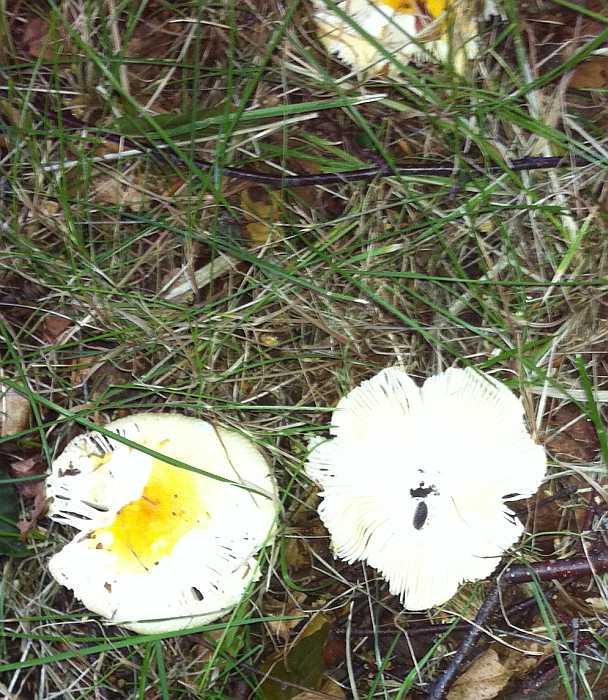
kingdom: Fungi
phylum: Basidiomycota
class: Agaricomycetes
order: Russulales
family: Russulaceae
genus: Russula
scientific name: Russula solaris
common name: sol-skørhat
